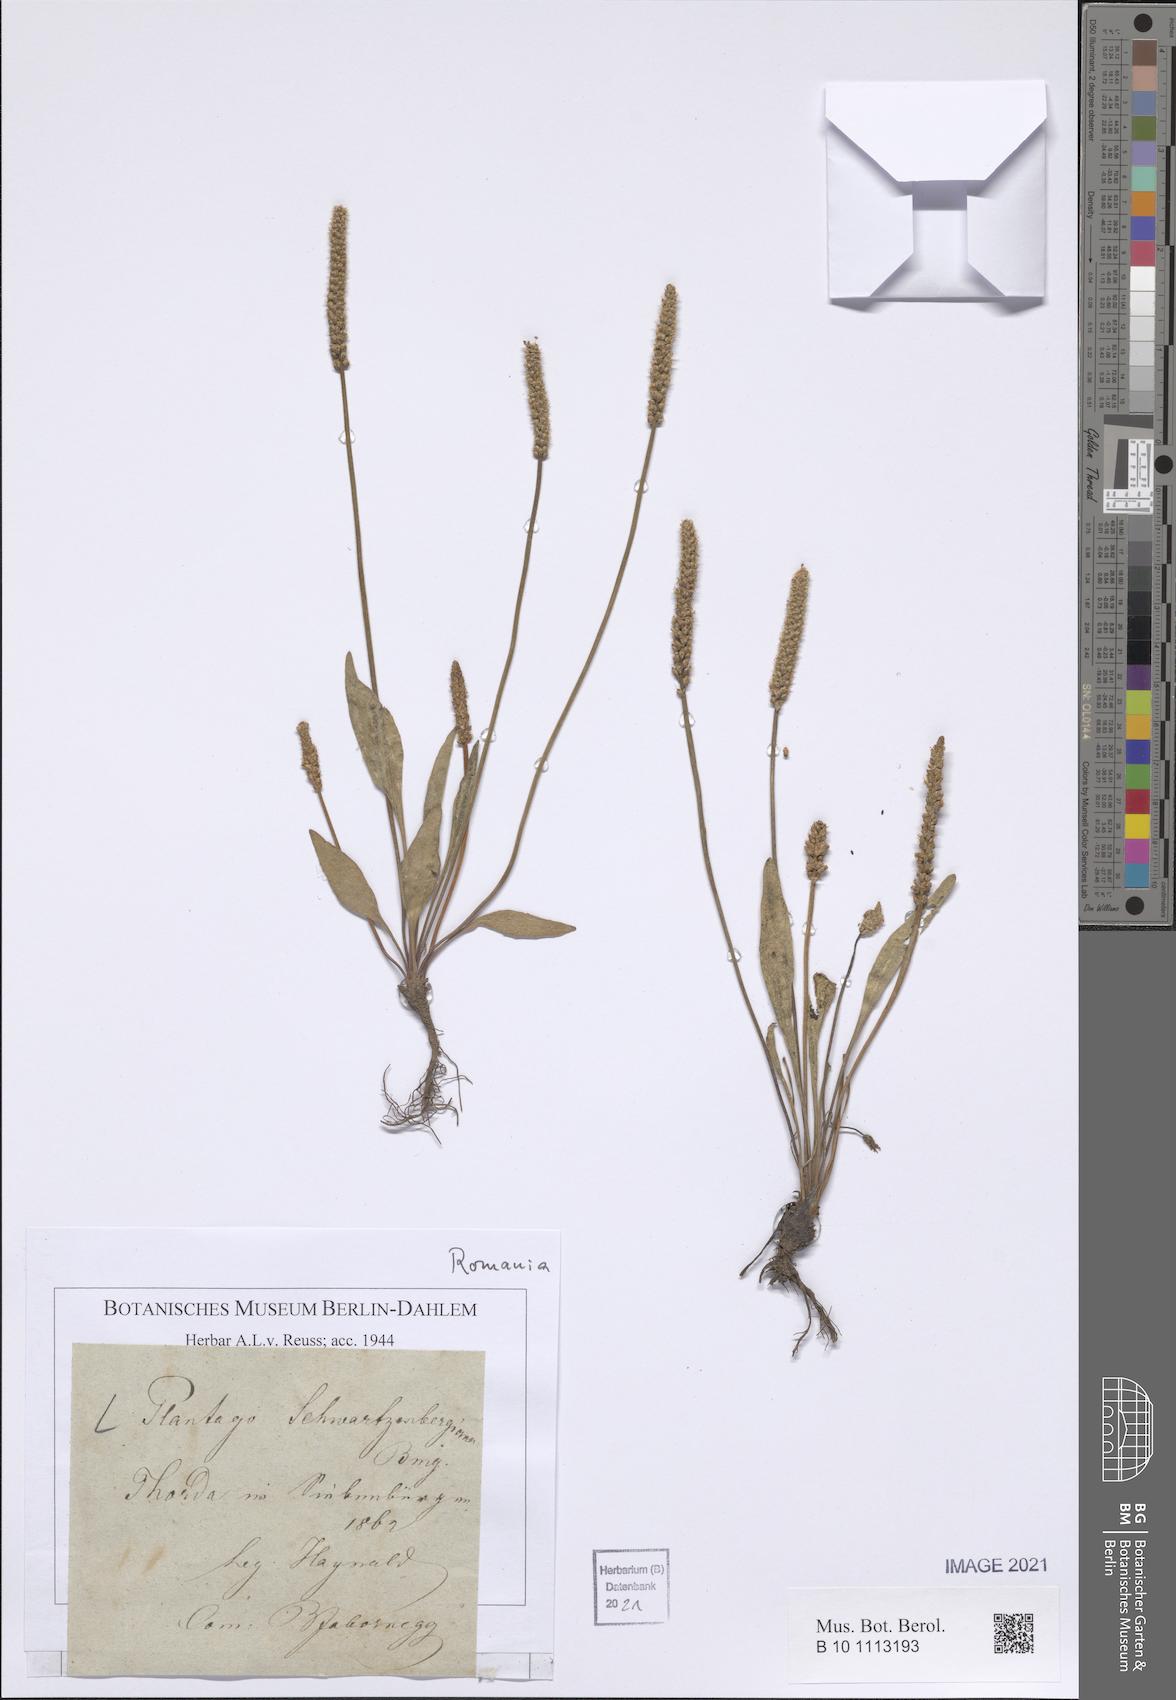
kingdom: Plantae
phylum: Tracheophyta
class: Magnoliopsida
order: Lamiales
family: Plantaginaceae
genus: Plantago
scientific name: Plantago schwarzenbergiana
